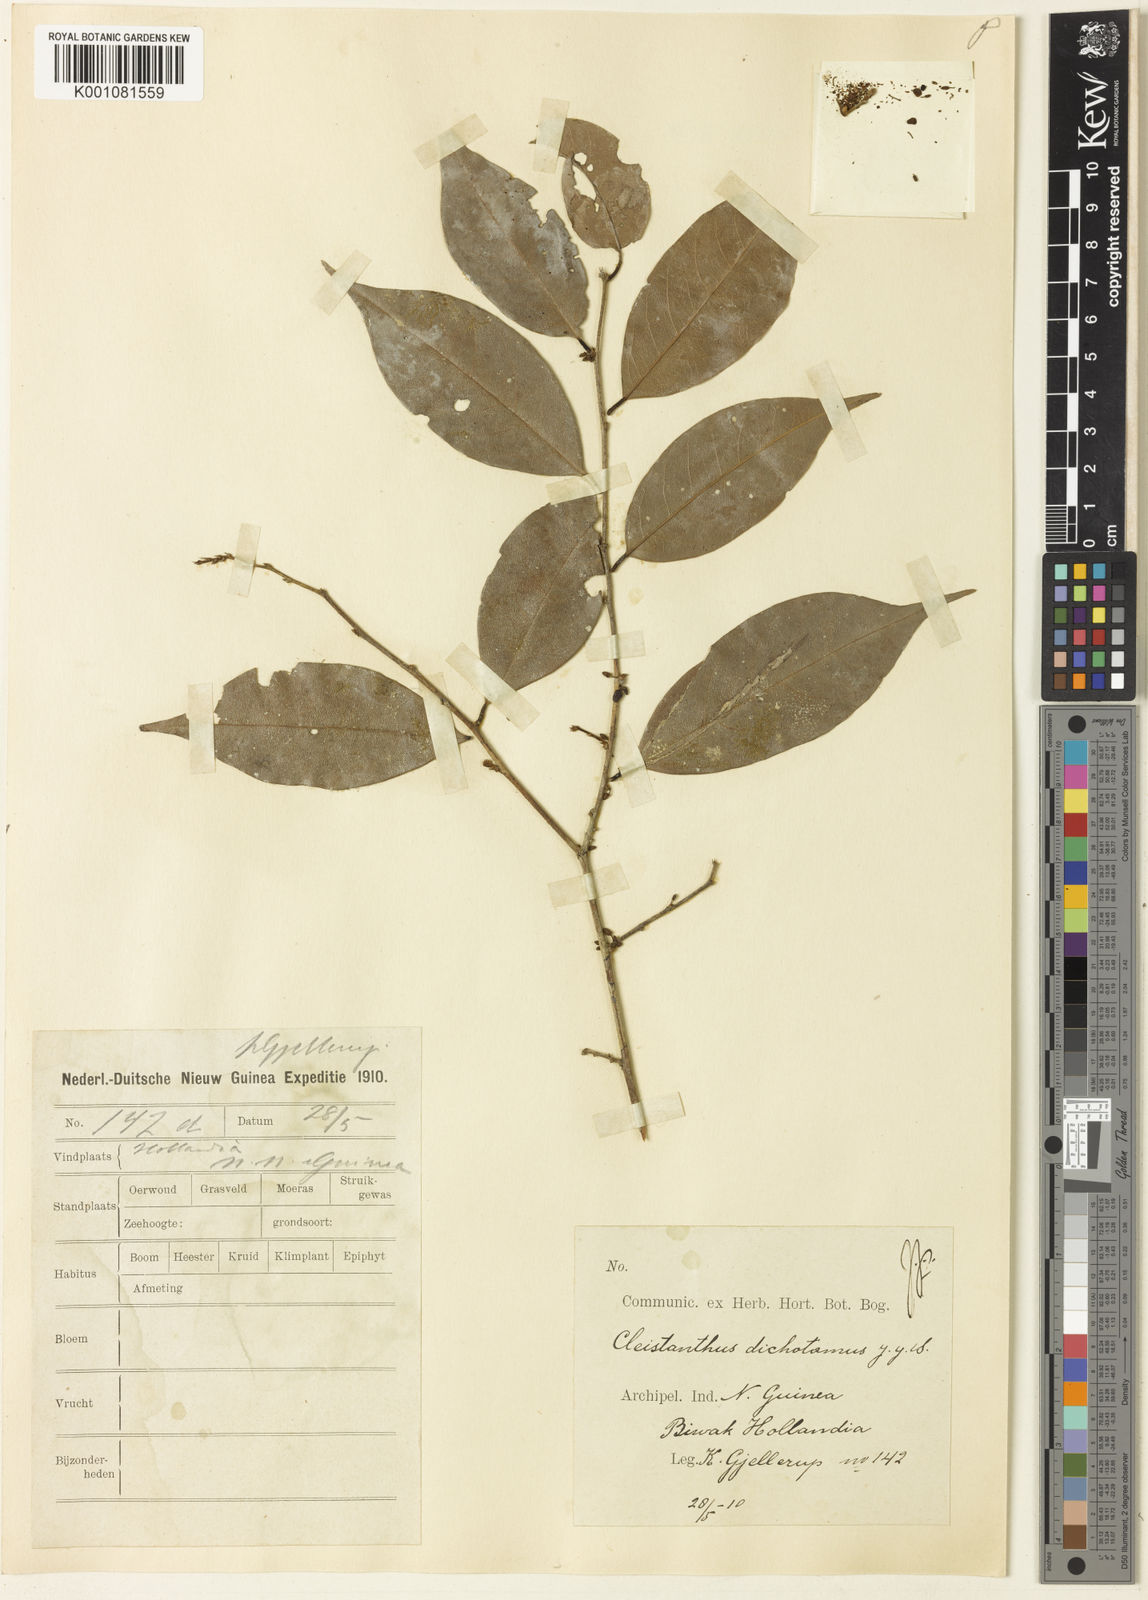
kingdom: Plantae
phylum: Tracheophyta
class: Magnoliopsida
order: Malpighiales
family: Phyllanthaceae
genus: Cleistanthus
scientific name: Cleistanthus pedicellatus
